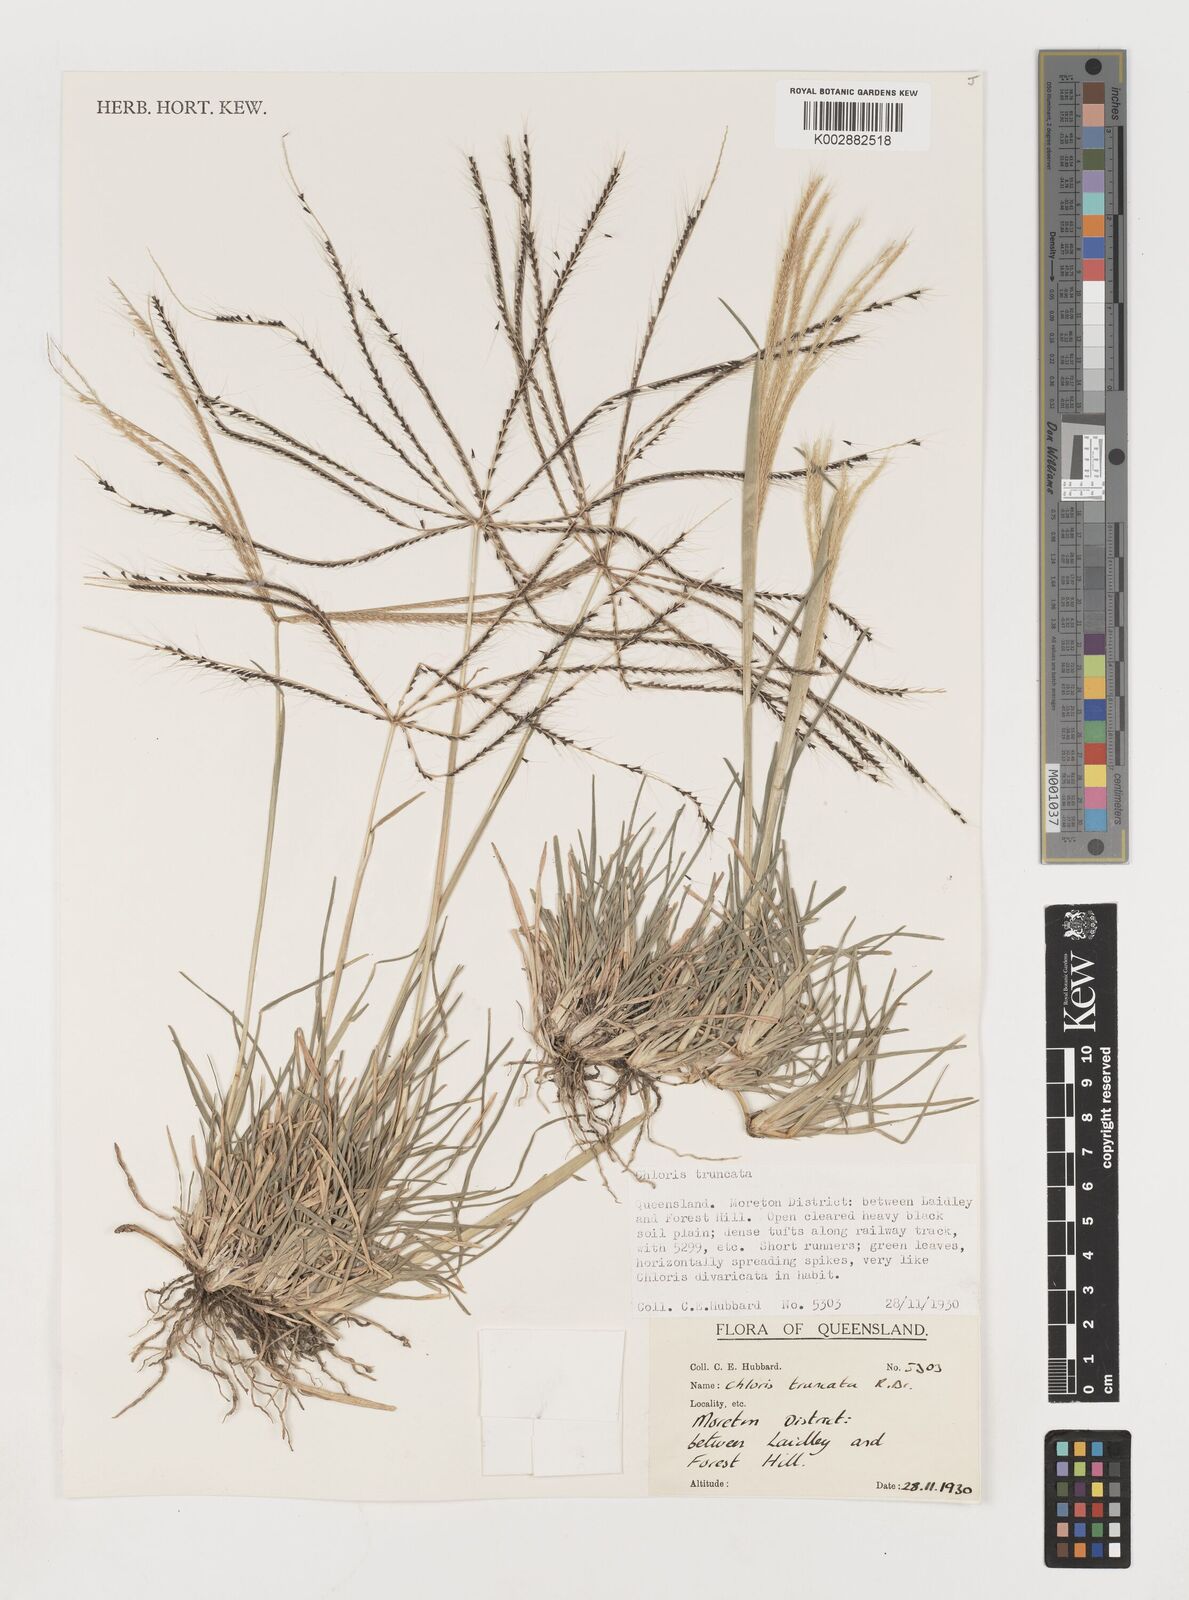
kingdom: Plantae
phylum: Tracheophyta
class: Liliopsida
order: Poales
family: Poaceae
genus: Chloris
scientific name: Chloris truncata
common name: Windmill-grass
